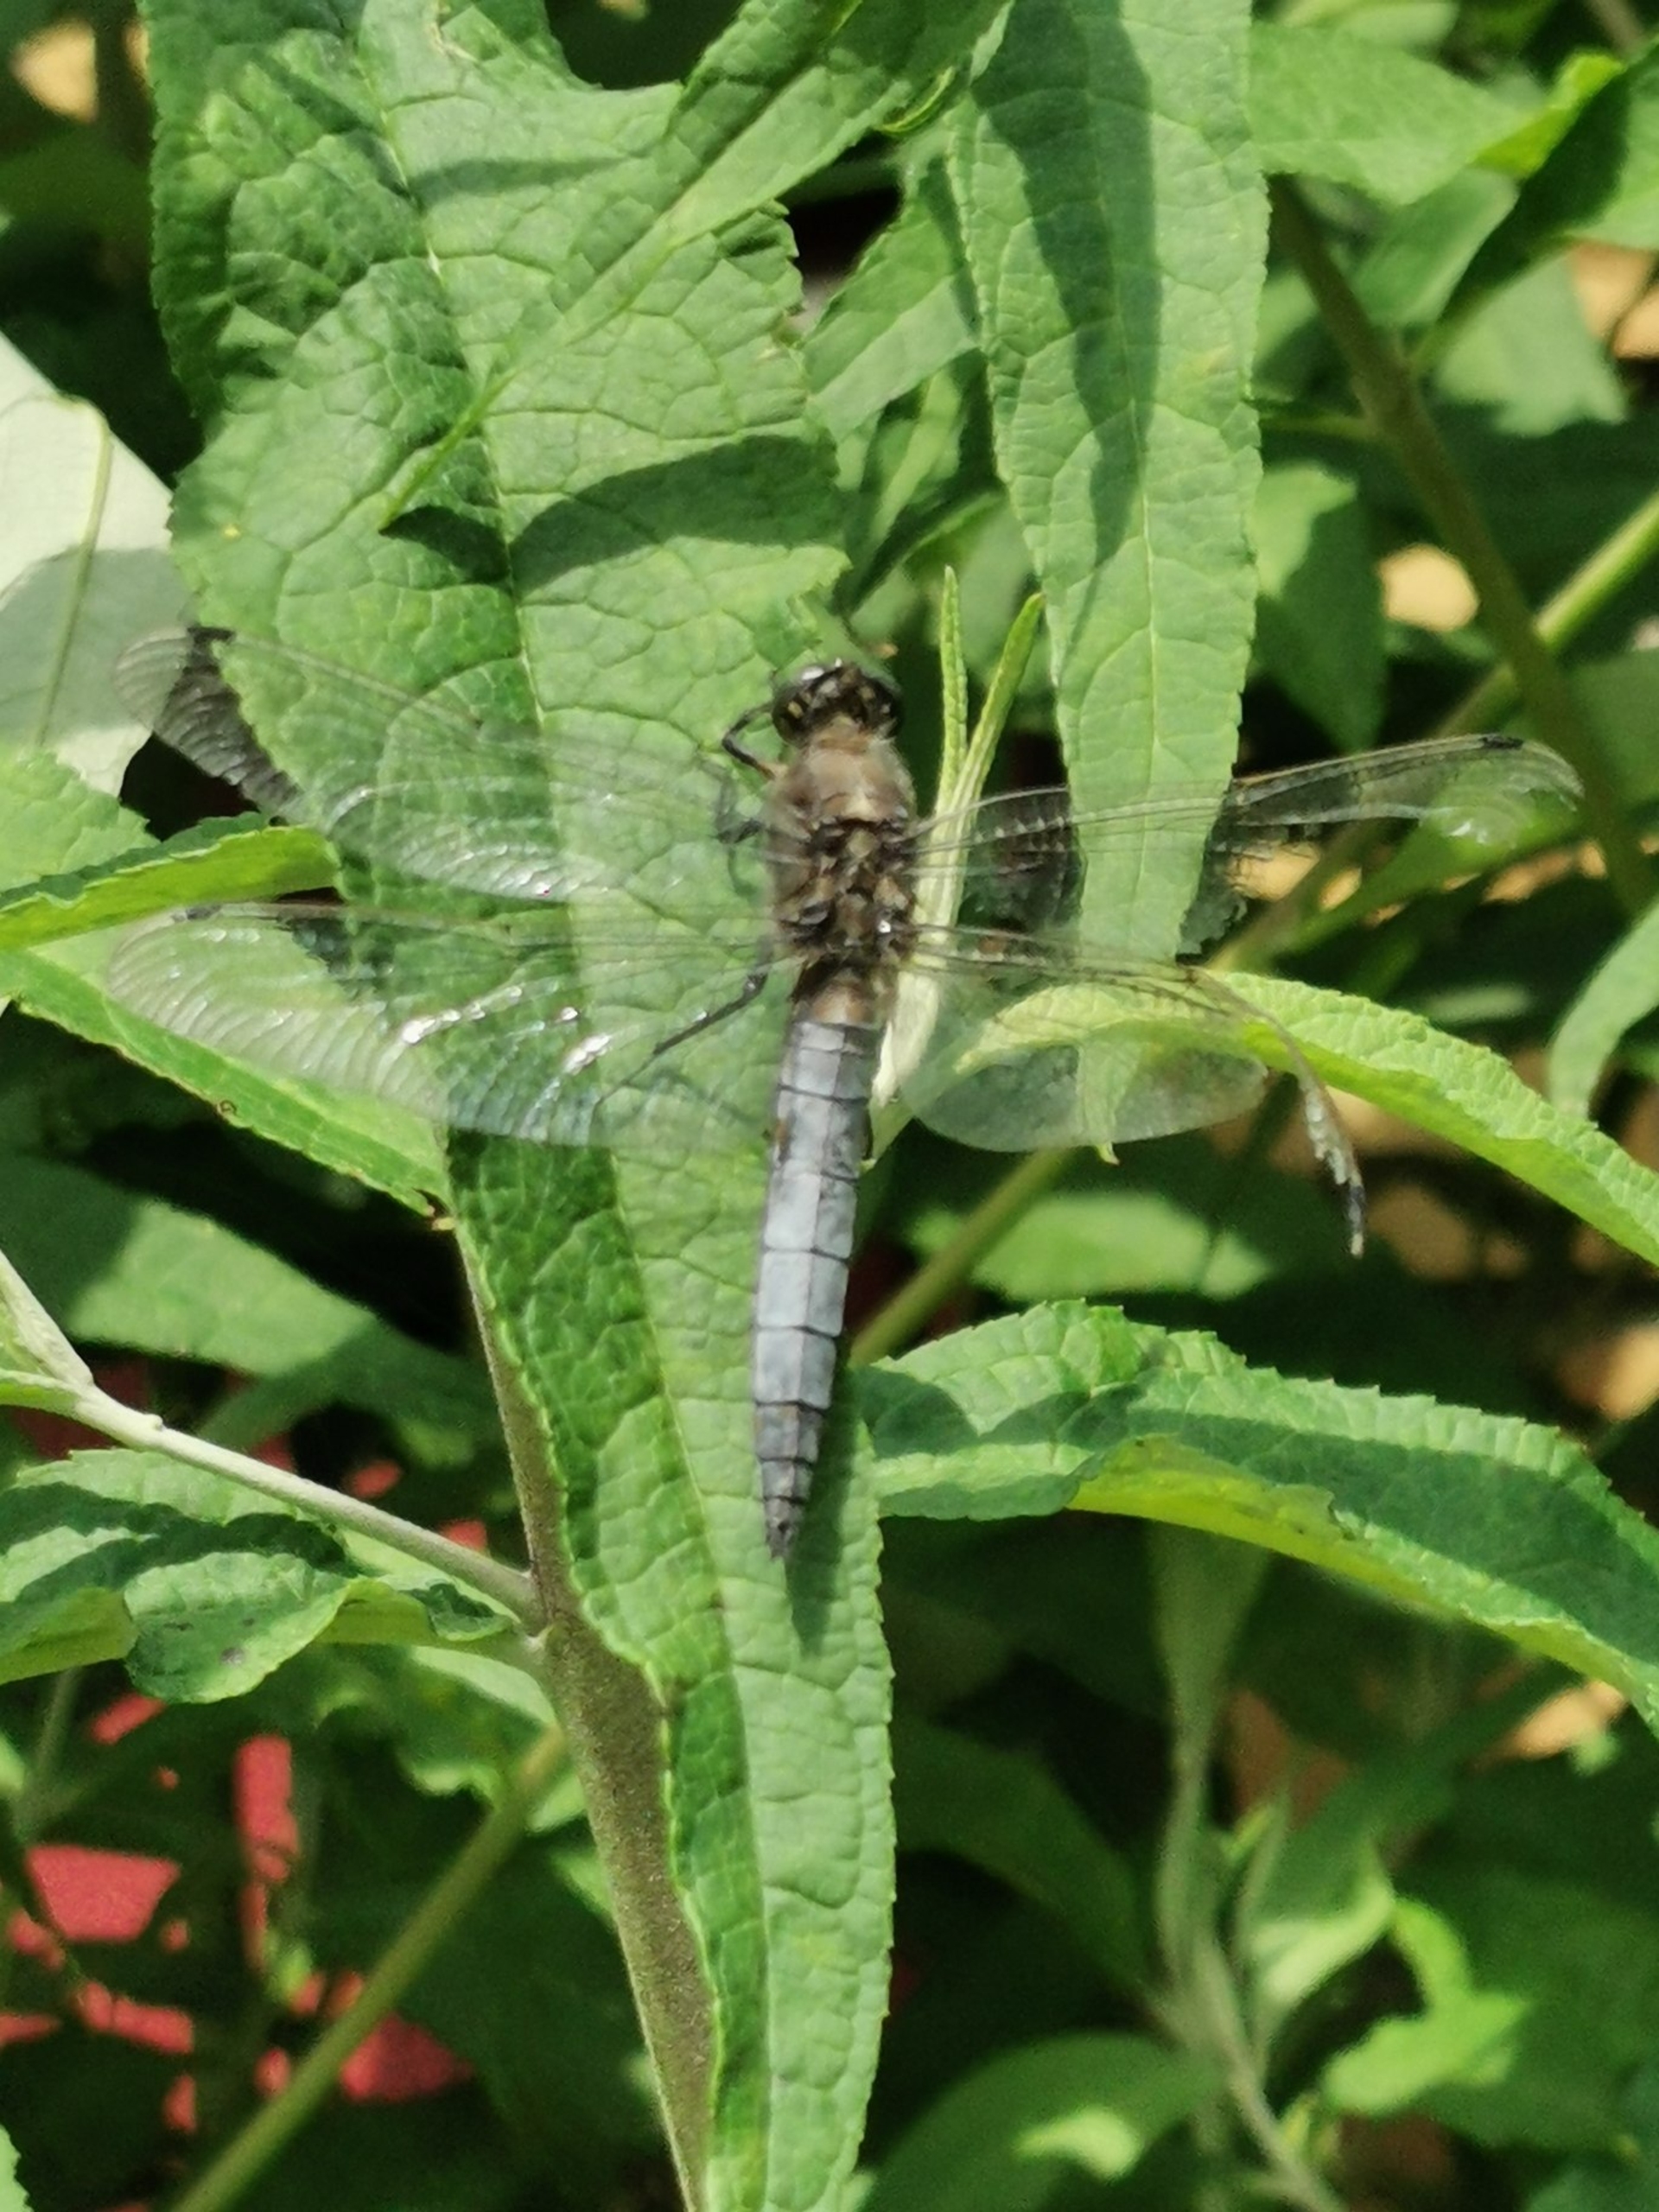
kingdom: Animalia
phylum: Arthropoda
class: Insecta
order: Odonata
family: Libellulidae
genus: Orthetrum
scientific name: Orthetrum cancellatum
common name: Stor blåpil
